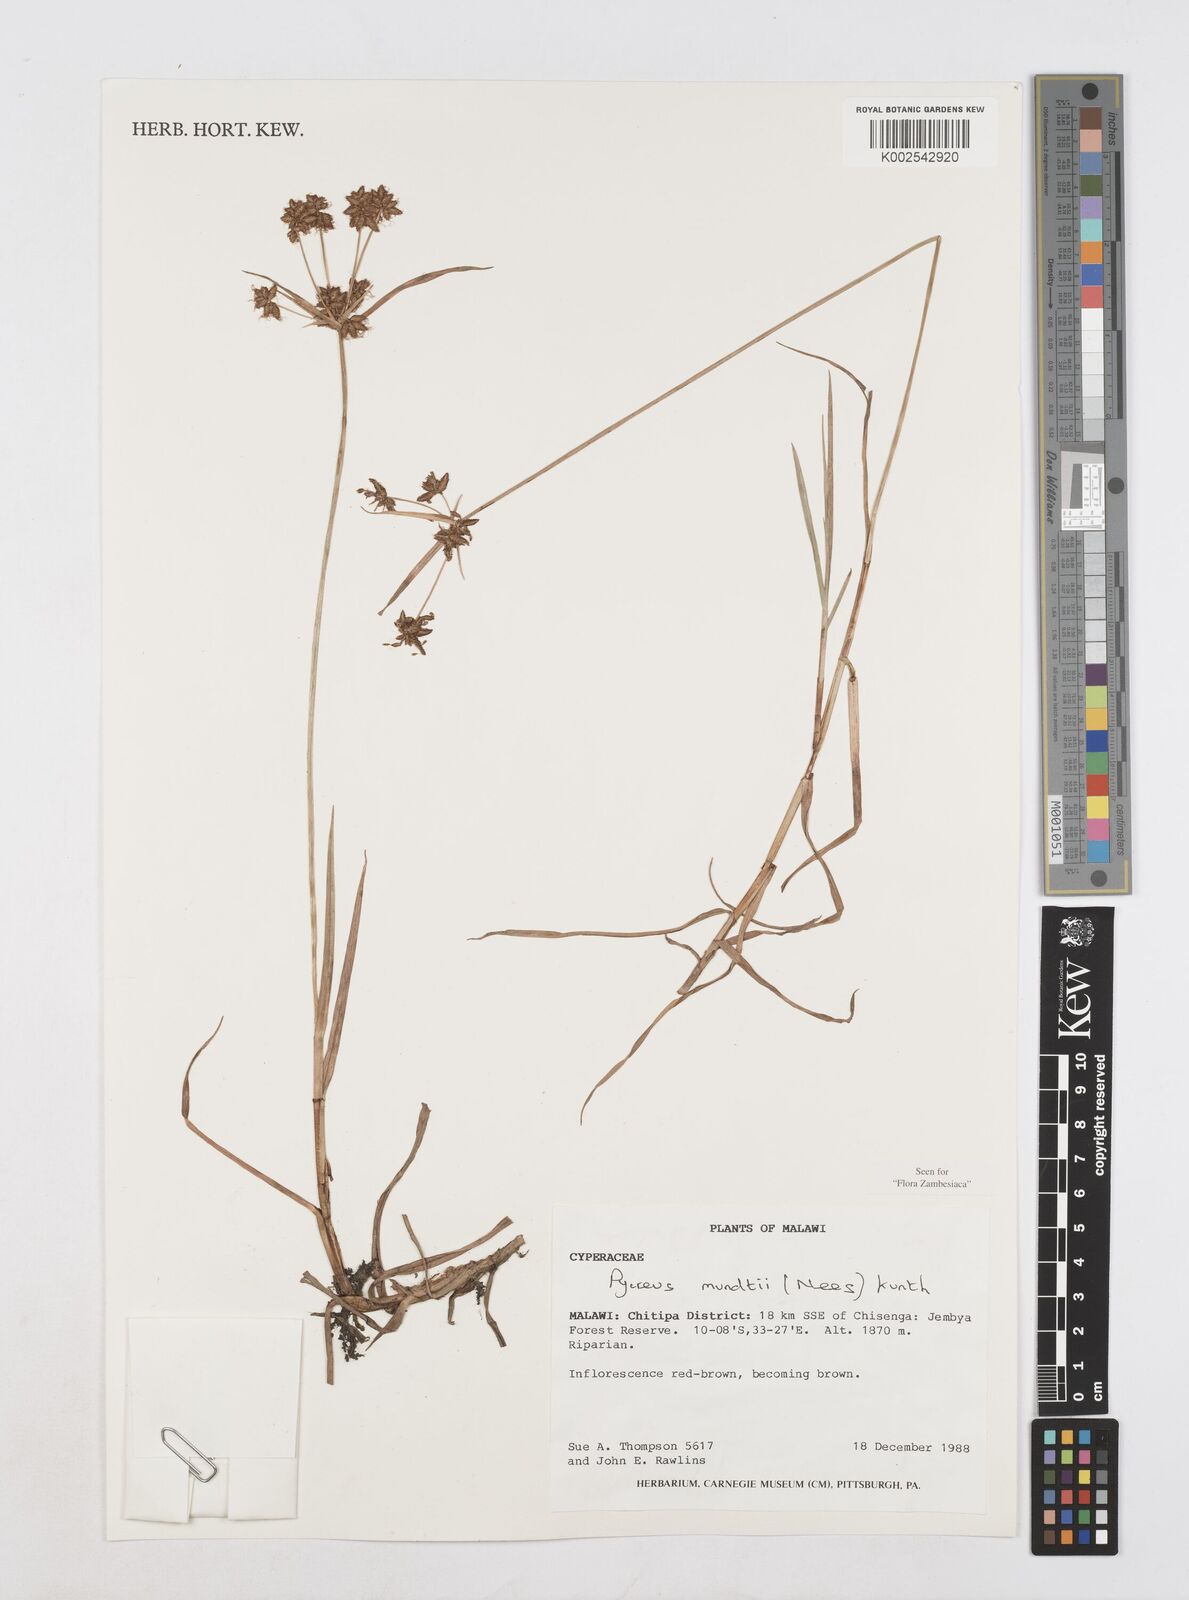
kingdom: Plantae
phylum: Tracheophyta
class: Liliopsida
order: Poales
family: Cyperaceae
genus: Cyperus
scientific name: Cyperus mundii
